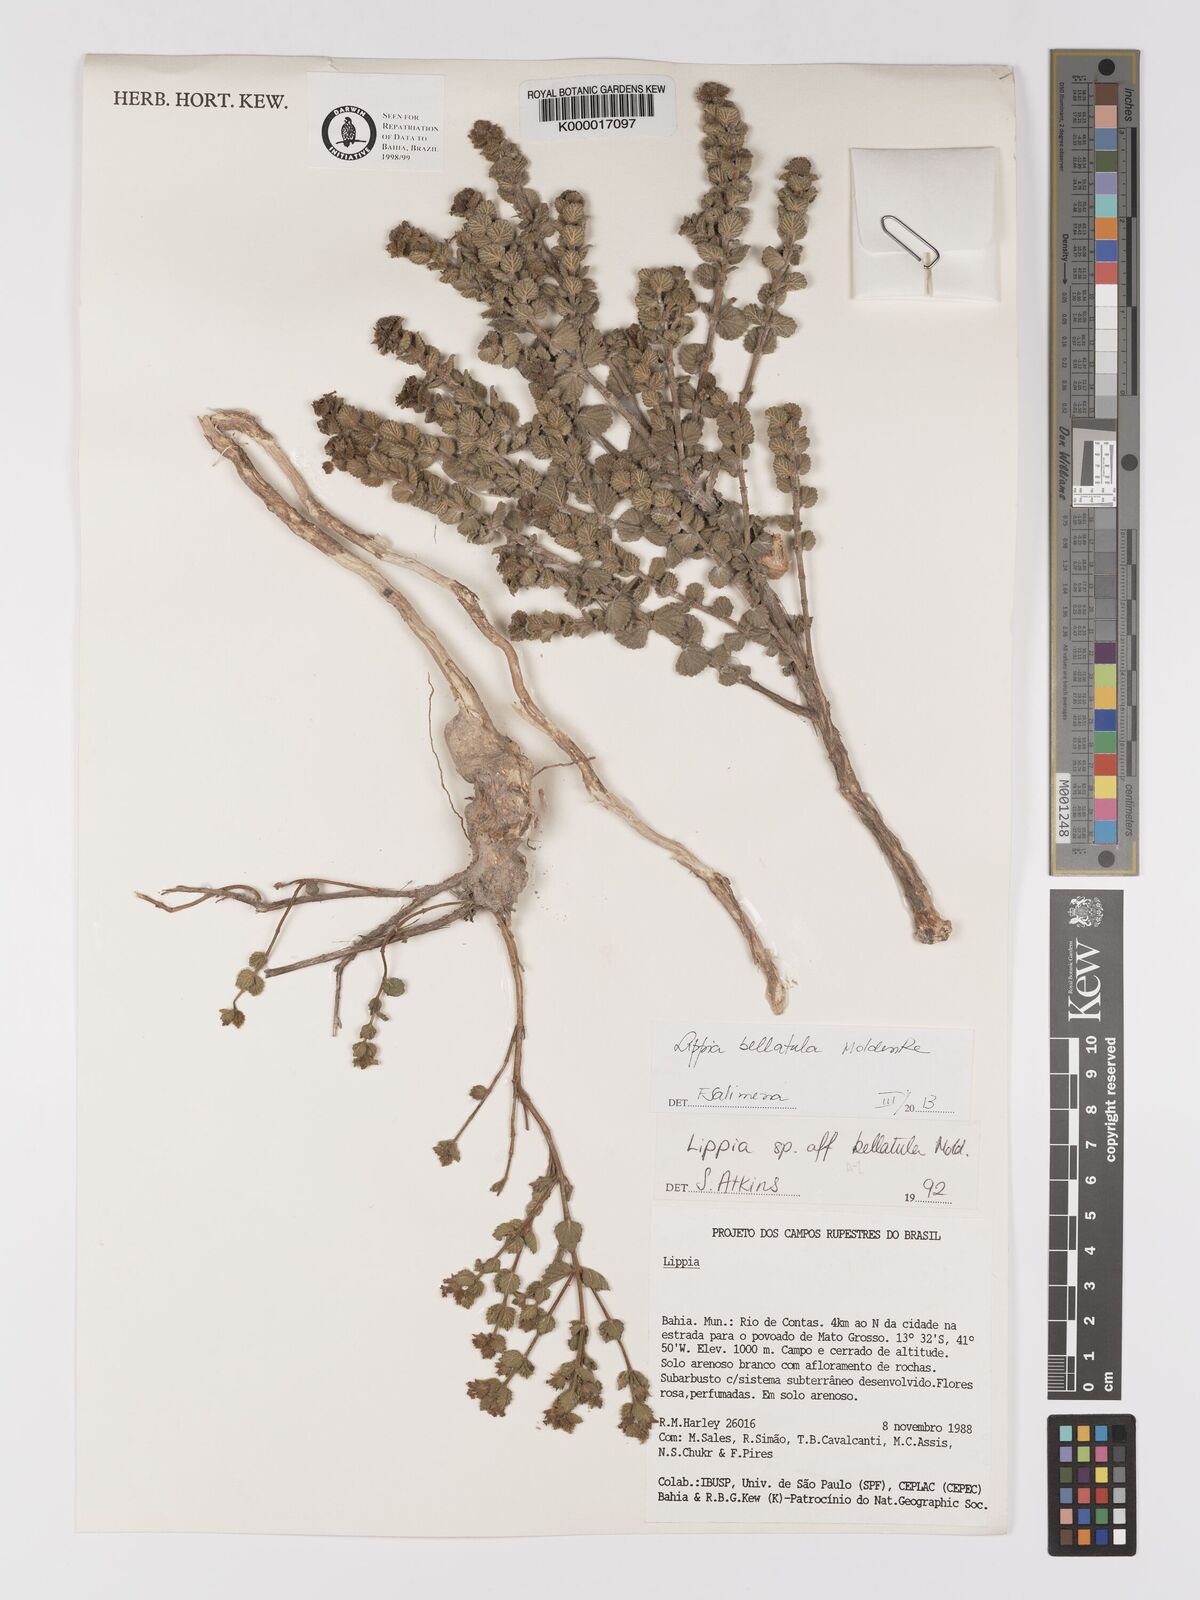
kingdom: Plantae
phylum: Tracheophyta
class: Magnoliopsida
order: Lamiales
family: Verbenaceae
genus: Lippia
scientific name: Lippia bellatula
